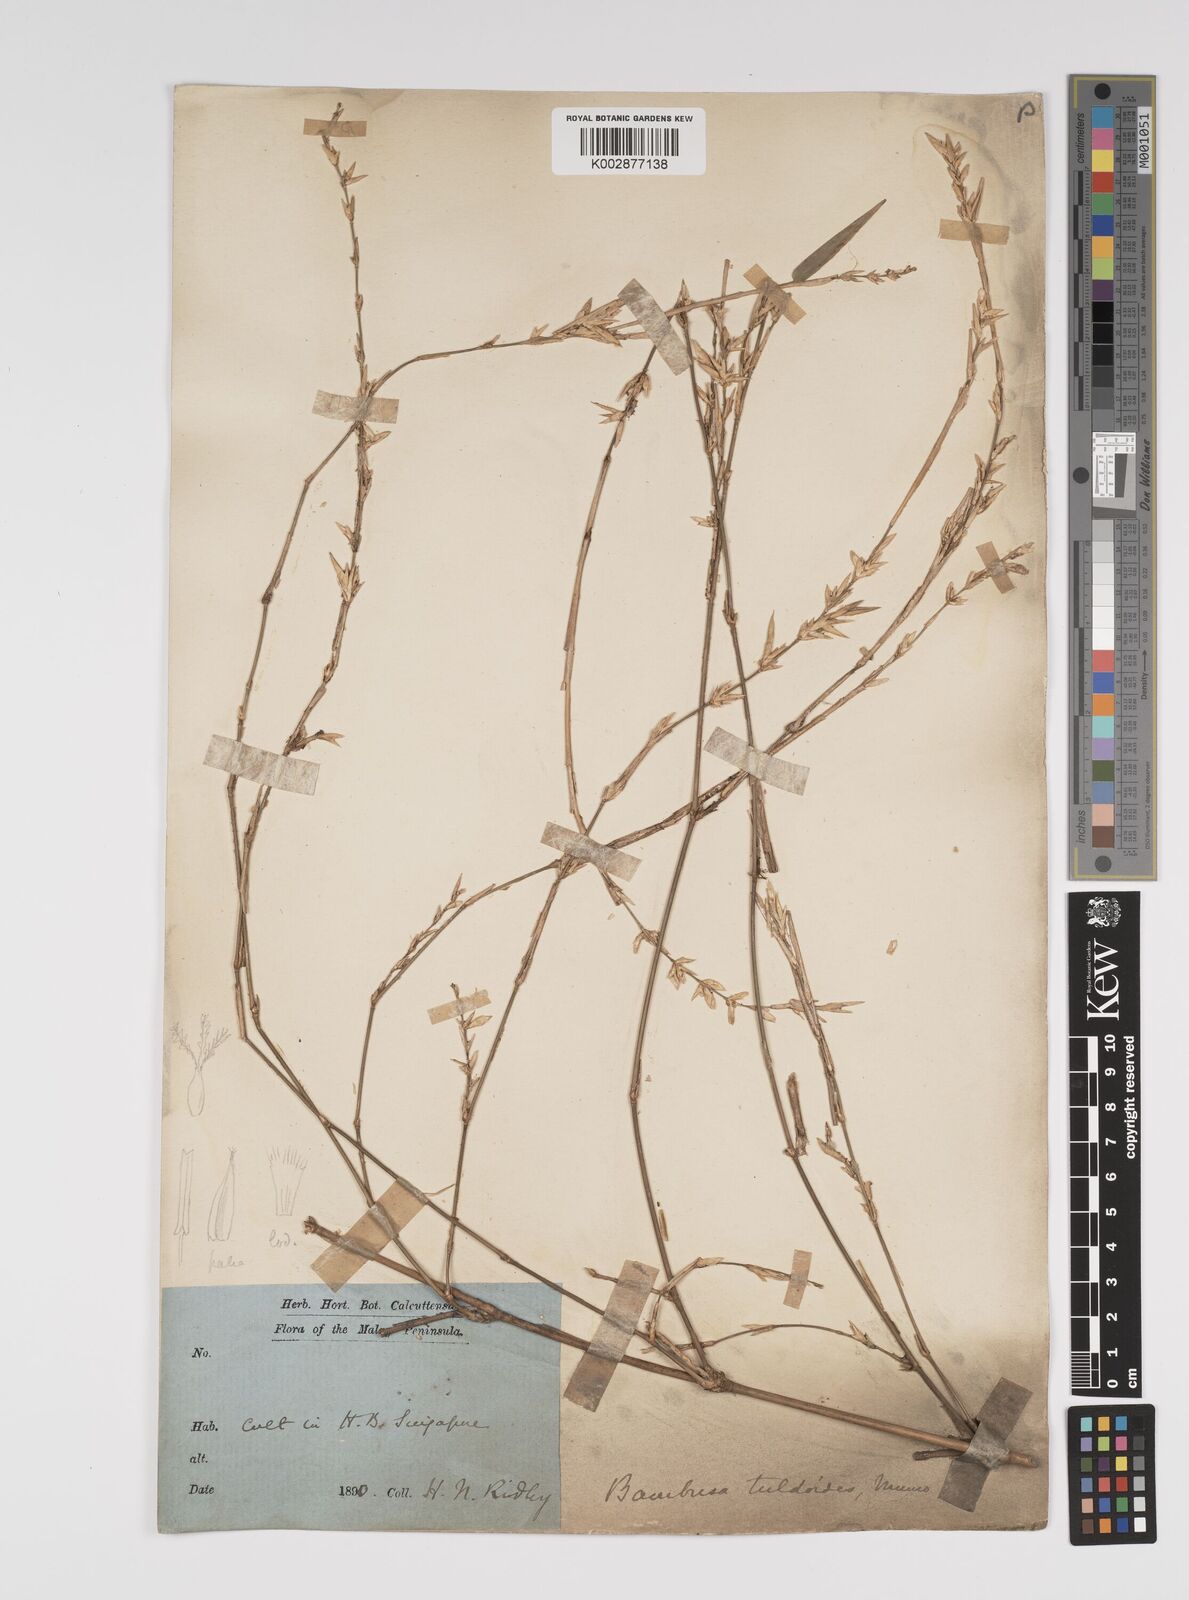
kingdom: Plantae
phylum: Tracheophyta
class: Liliopsida
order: Poales
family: Poaceae
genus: Bambusa
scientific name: Bambusa tuldoides
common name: Verdant bamboo
